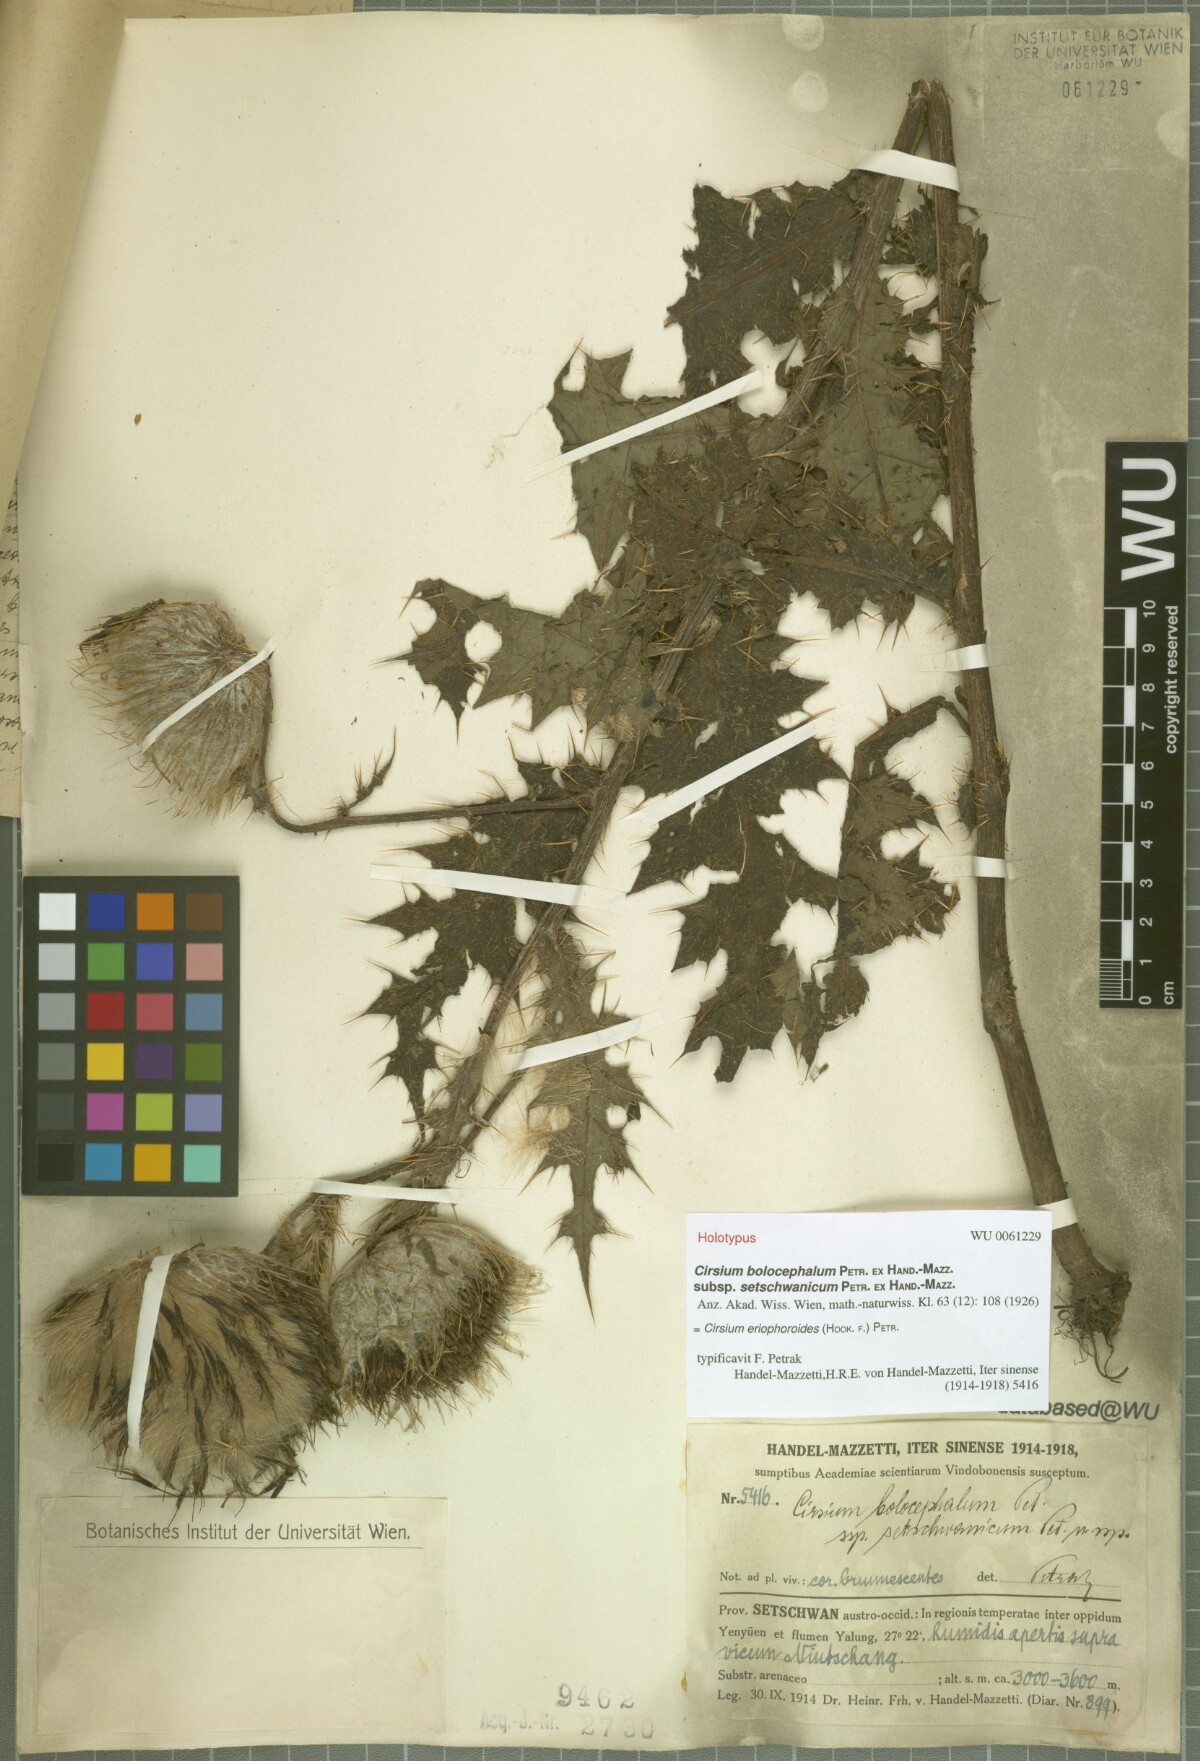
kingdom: Plantae
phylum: Tracheophyta
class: Magnoliopsida
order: Asterales
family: Asteraceae
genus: Cirsium
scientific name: Cirsium eriophoroides
